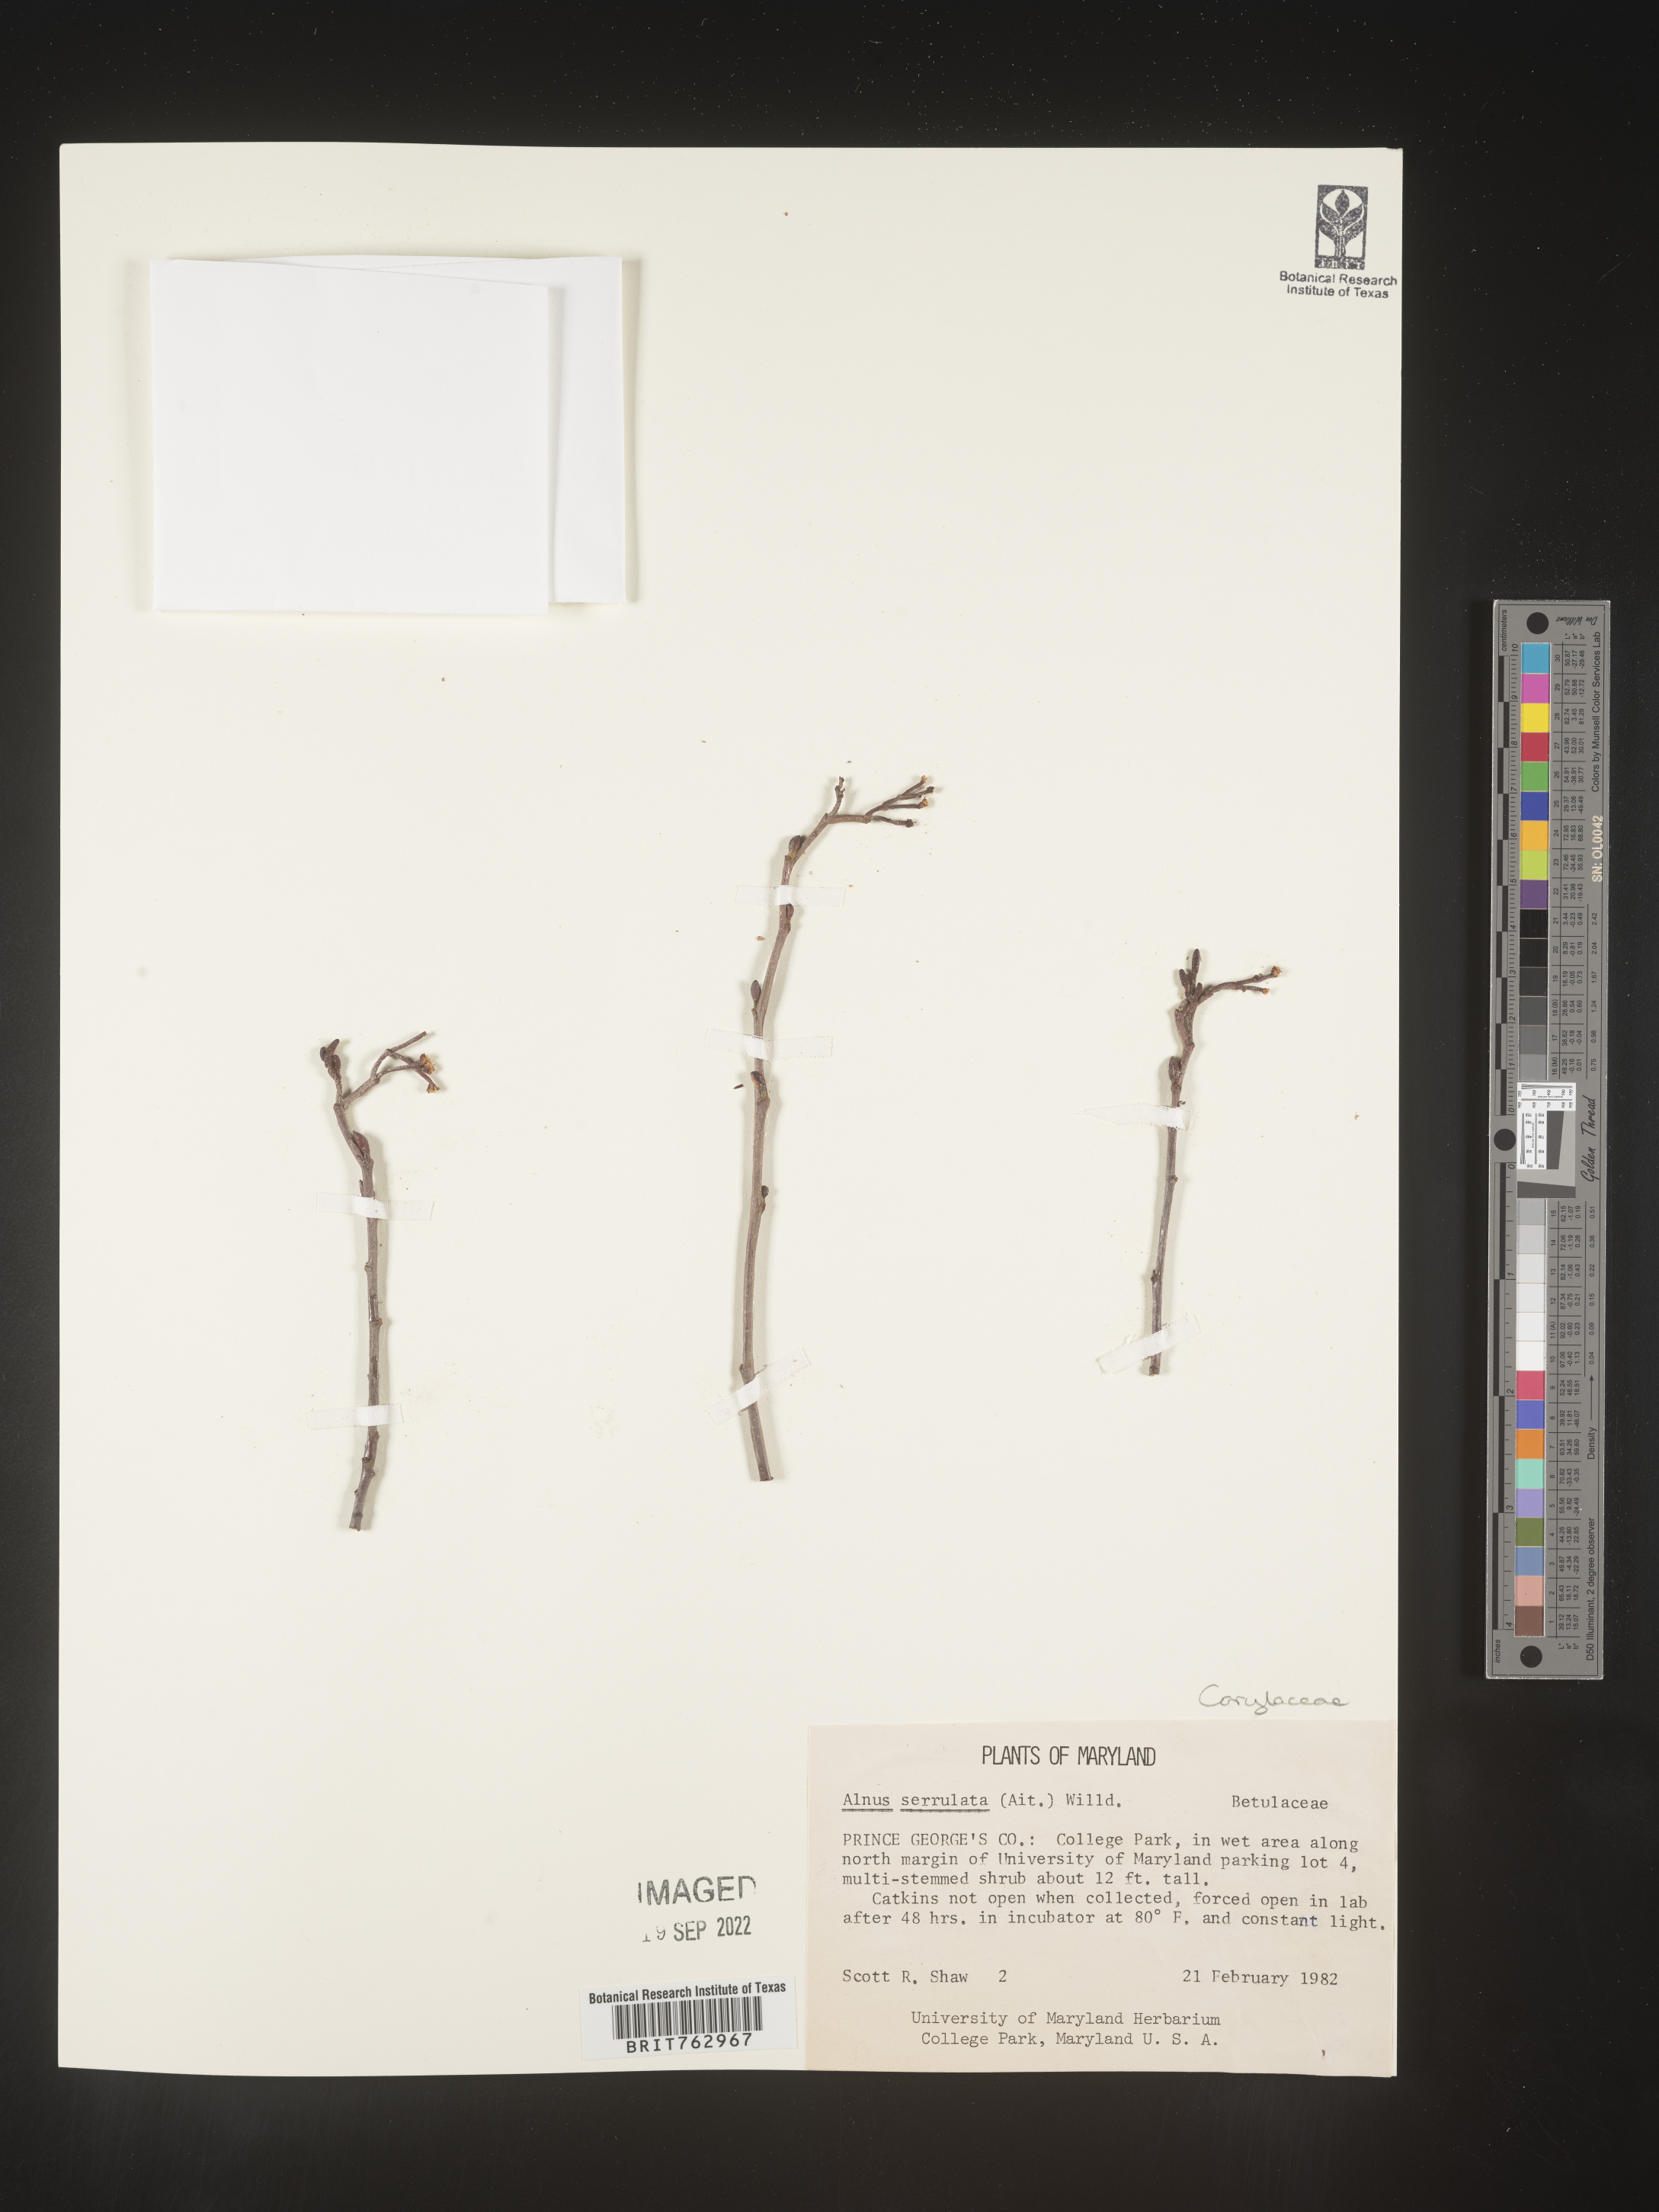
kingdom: Plantae
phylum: Tracheophyta
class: Magnoliopsida
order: Fagales
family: Betulaceae
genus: Alnus
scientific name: Alnus serrulata
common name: Hazel alder
